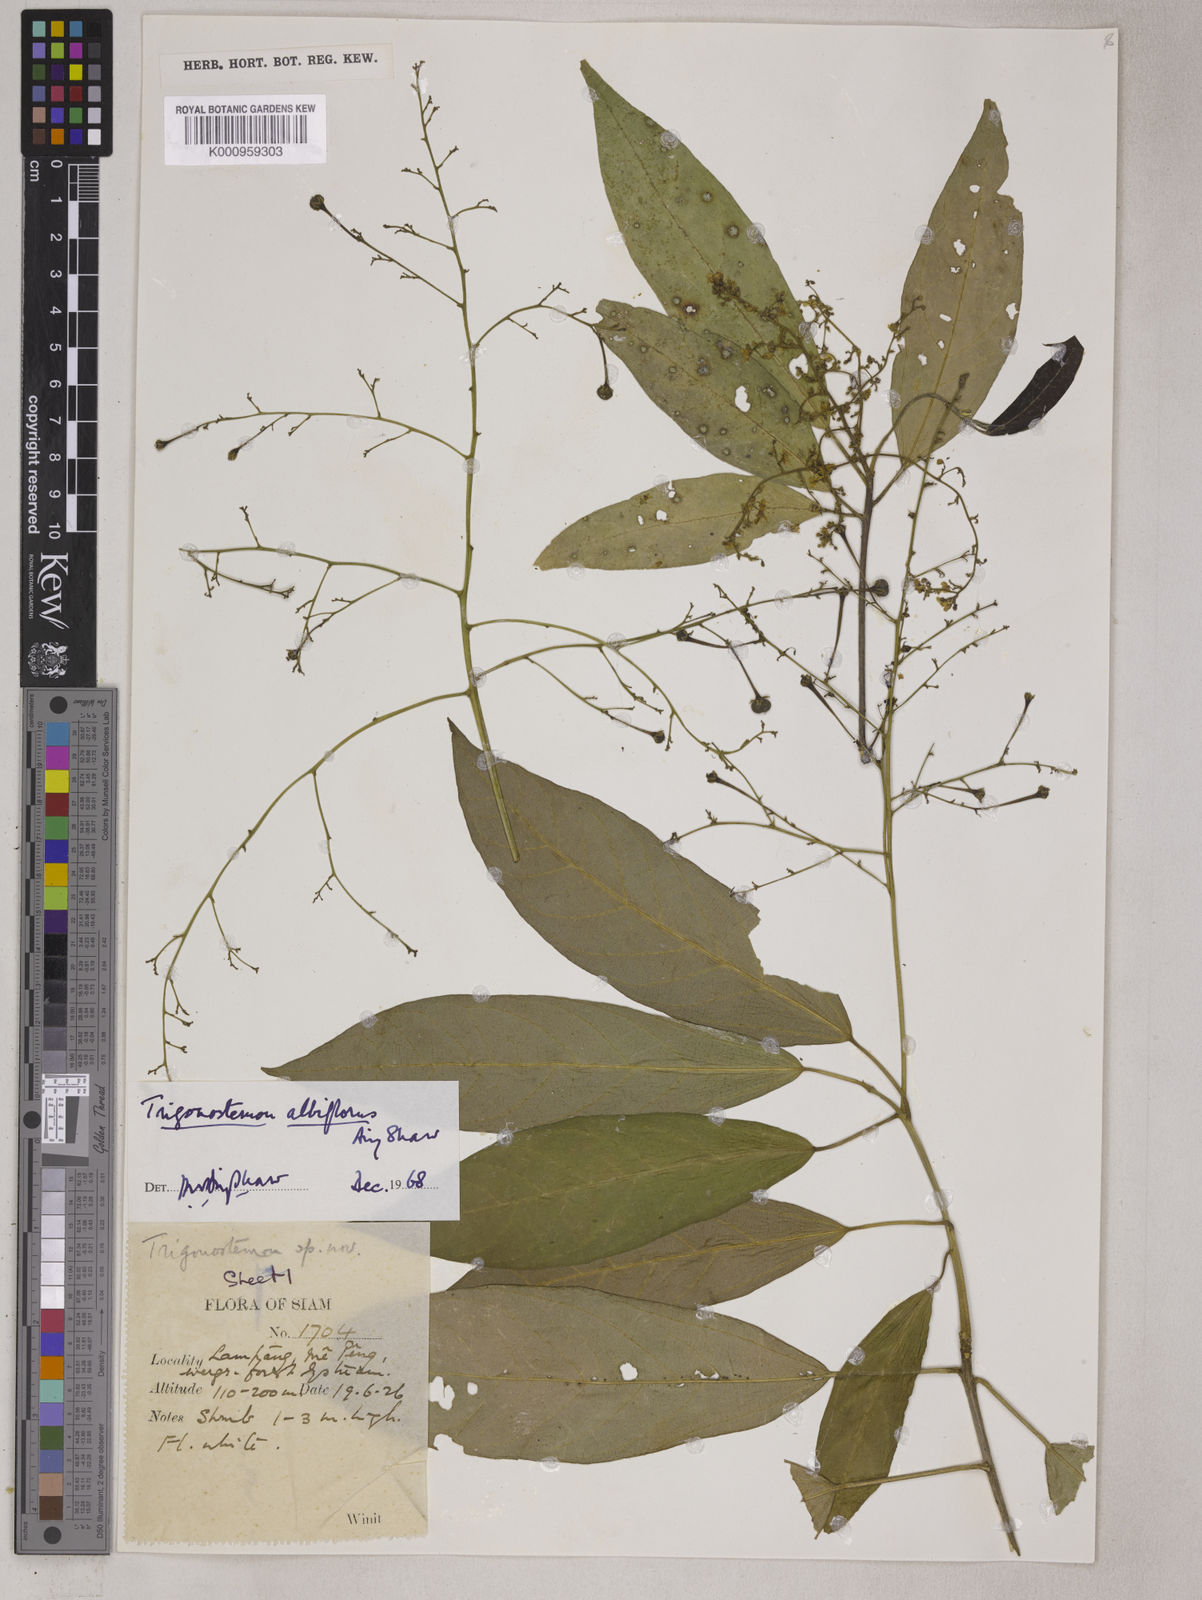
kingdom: Plantae
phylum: Tracheophyta
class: Magnoliopsida
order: Malpighiales
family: Euphorbiaceae
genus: Trigonostemon
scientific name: Trigonostemon eberhardtii
